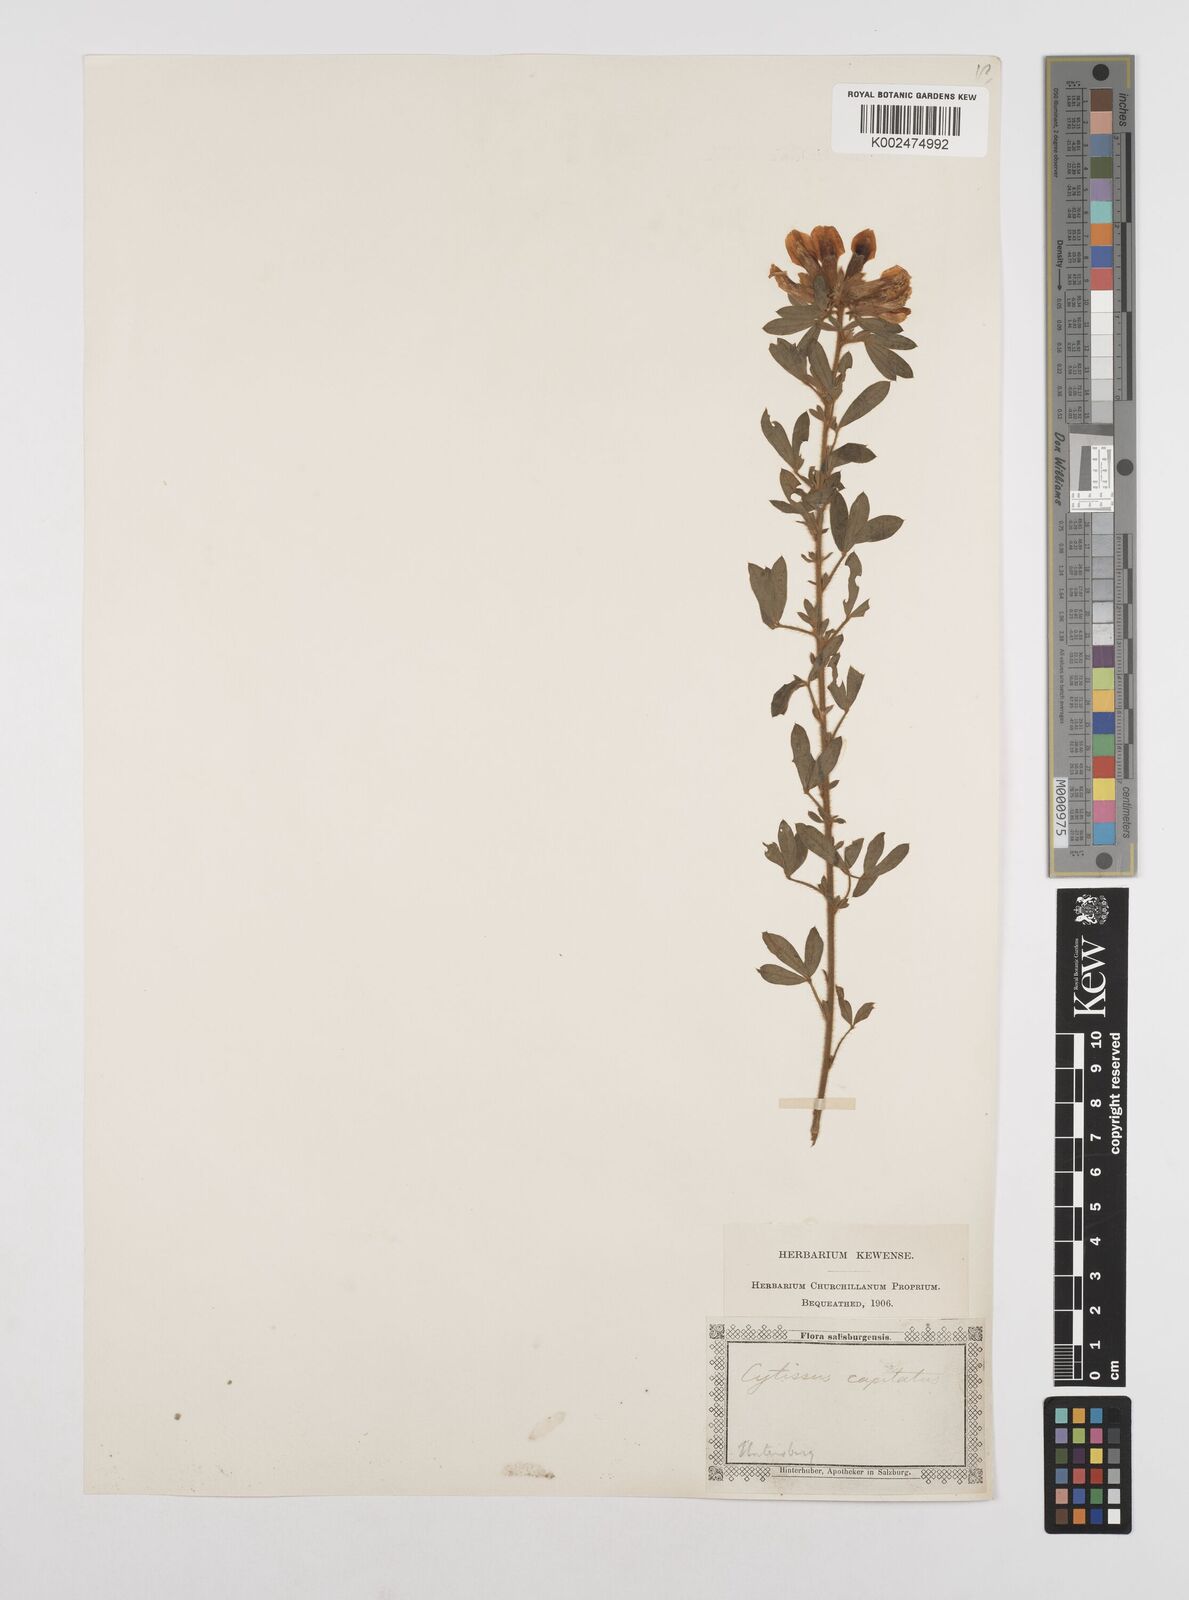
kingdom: Plantae
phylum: Tracheophyta
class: Magnoliopsida
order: Fabales
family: Fabaceae
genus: Chamaecytisus
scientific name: Chamaecytisus hirsutus
